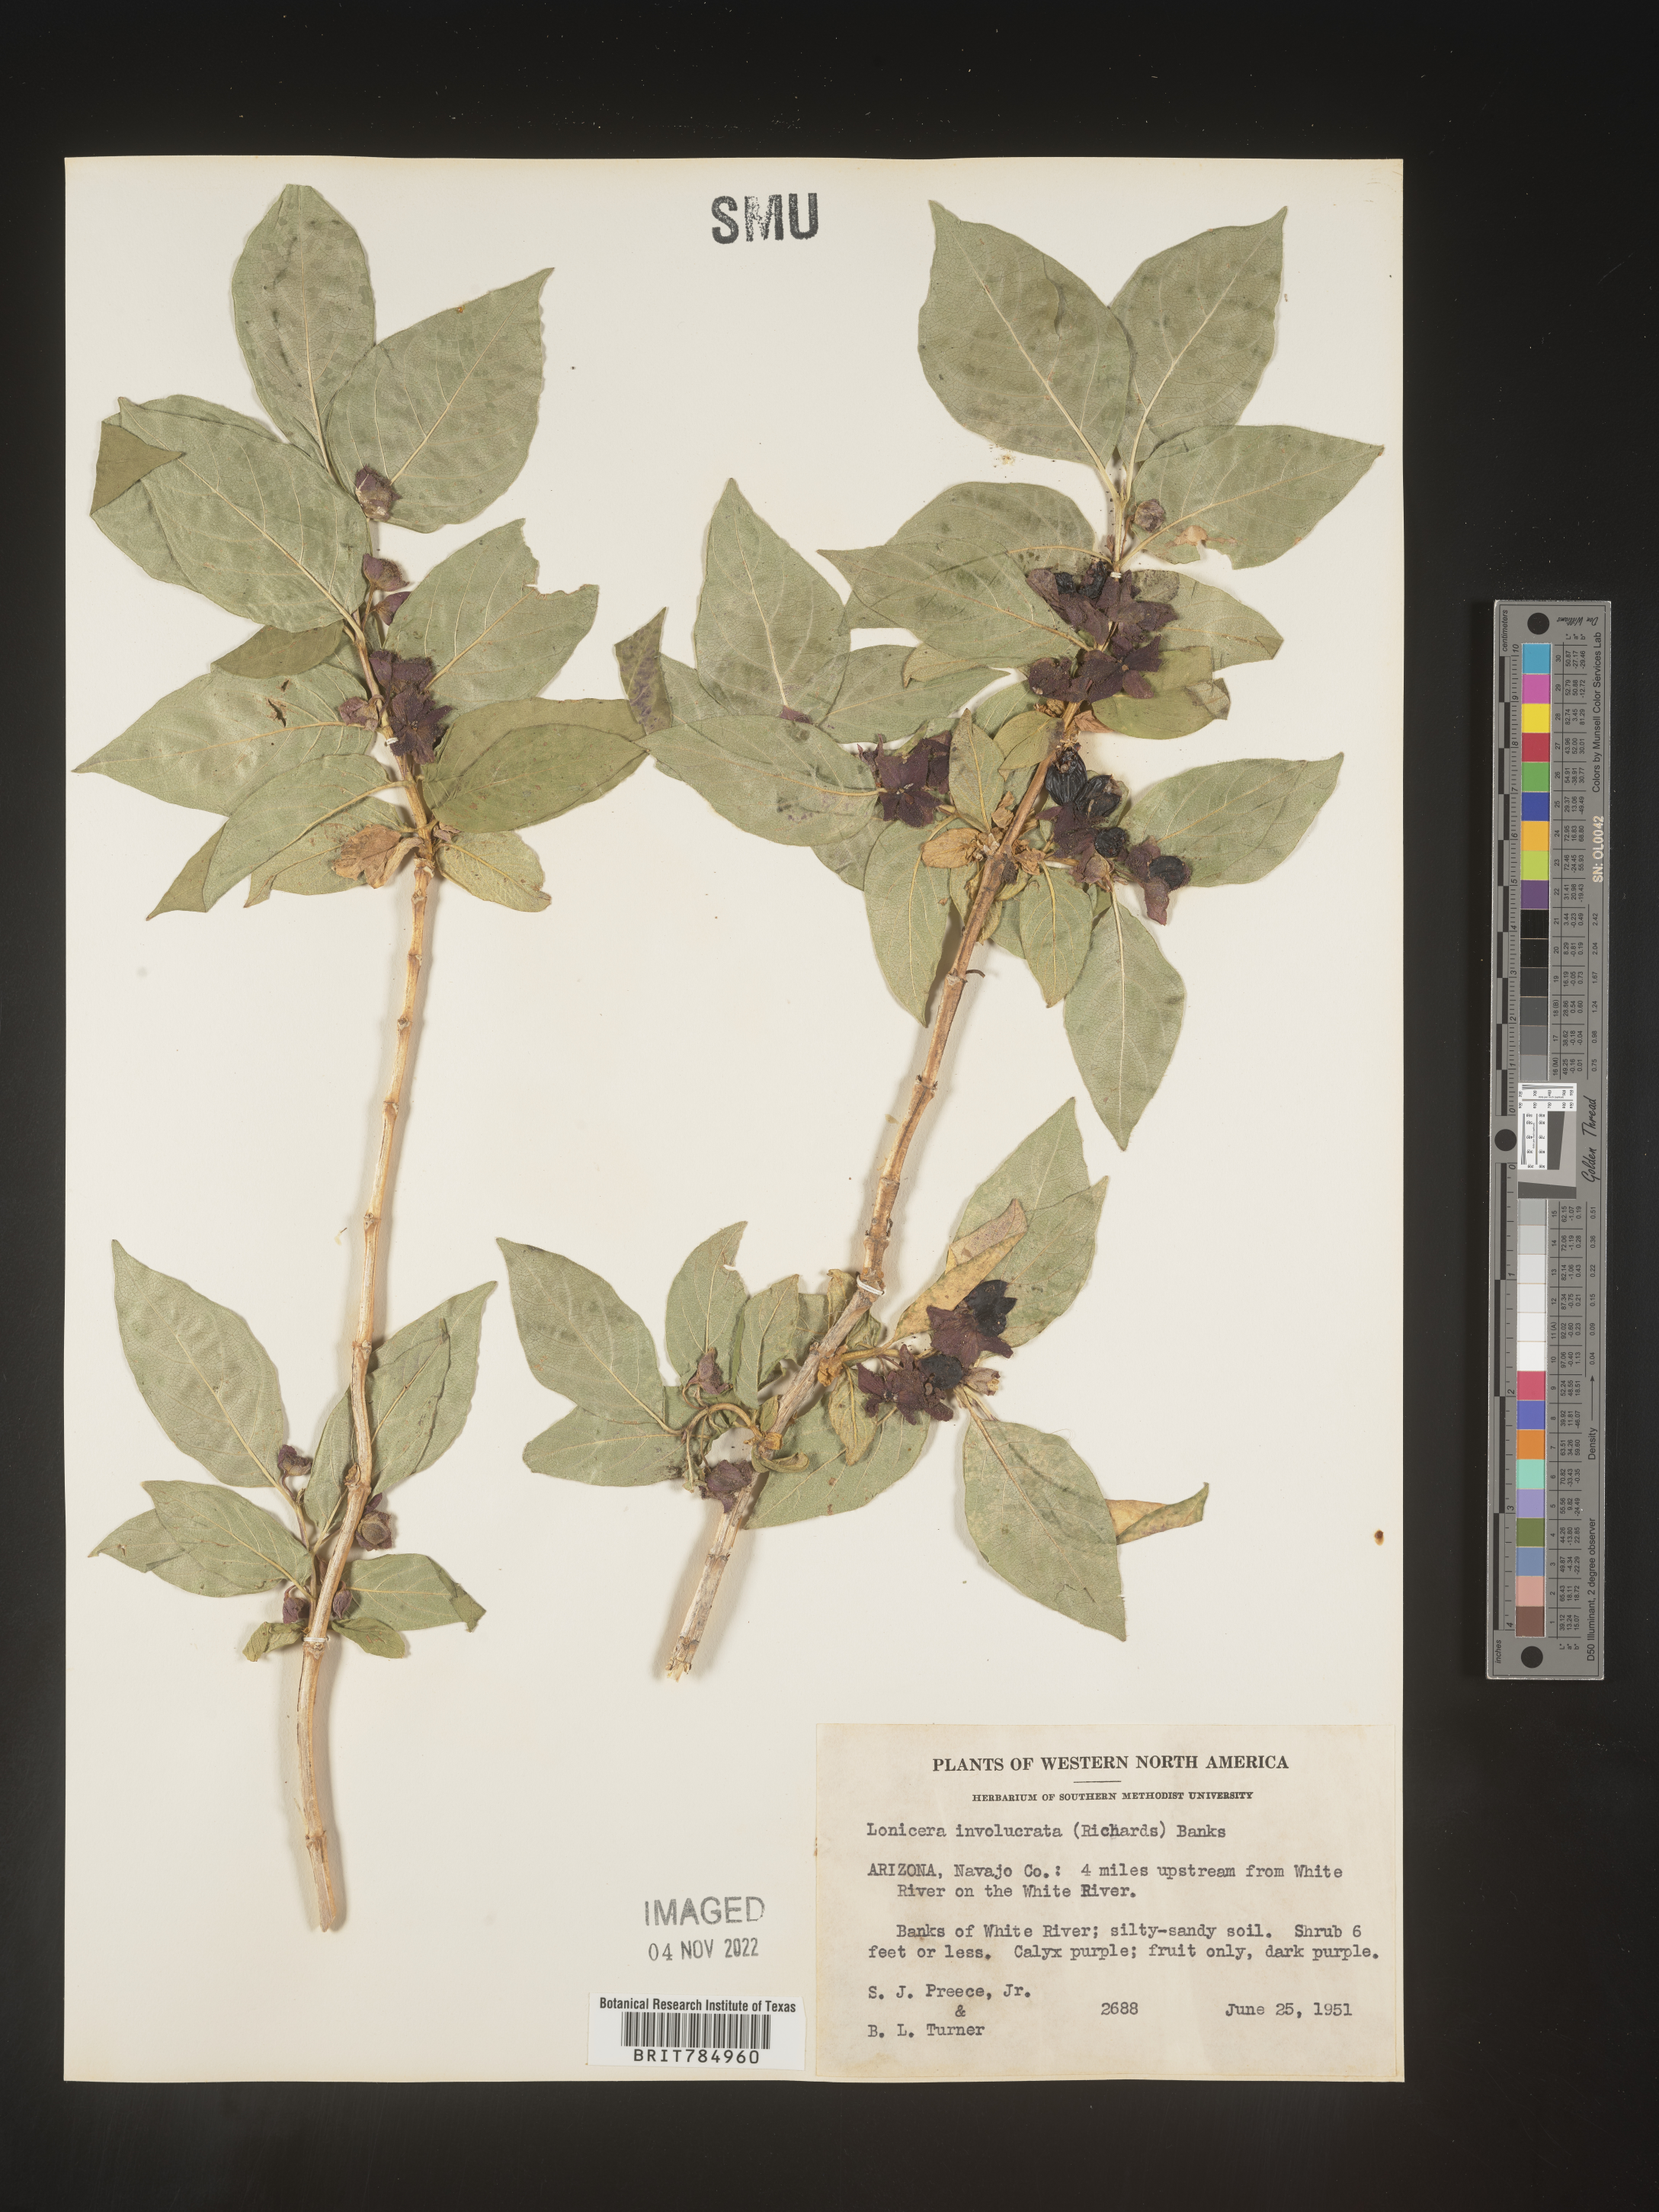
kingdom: Plantae
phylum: Tracheophyta
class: Magnoliopsida
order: Dipsacales
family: Caprifoliaceae
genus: Lonicera
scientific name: Lonicera involucrata
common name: Californian honeysuckle
